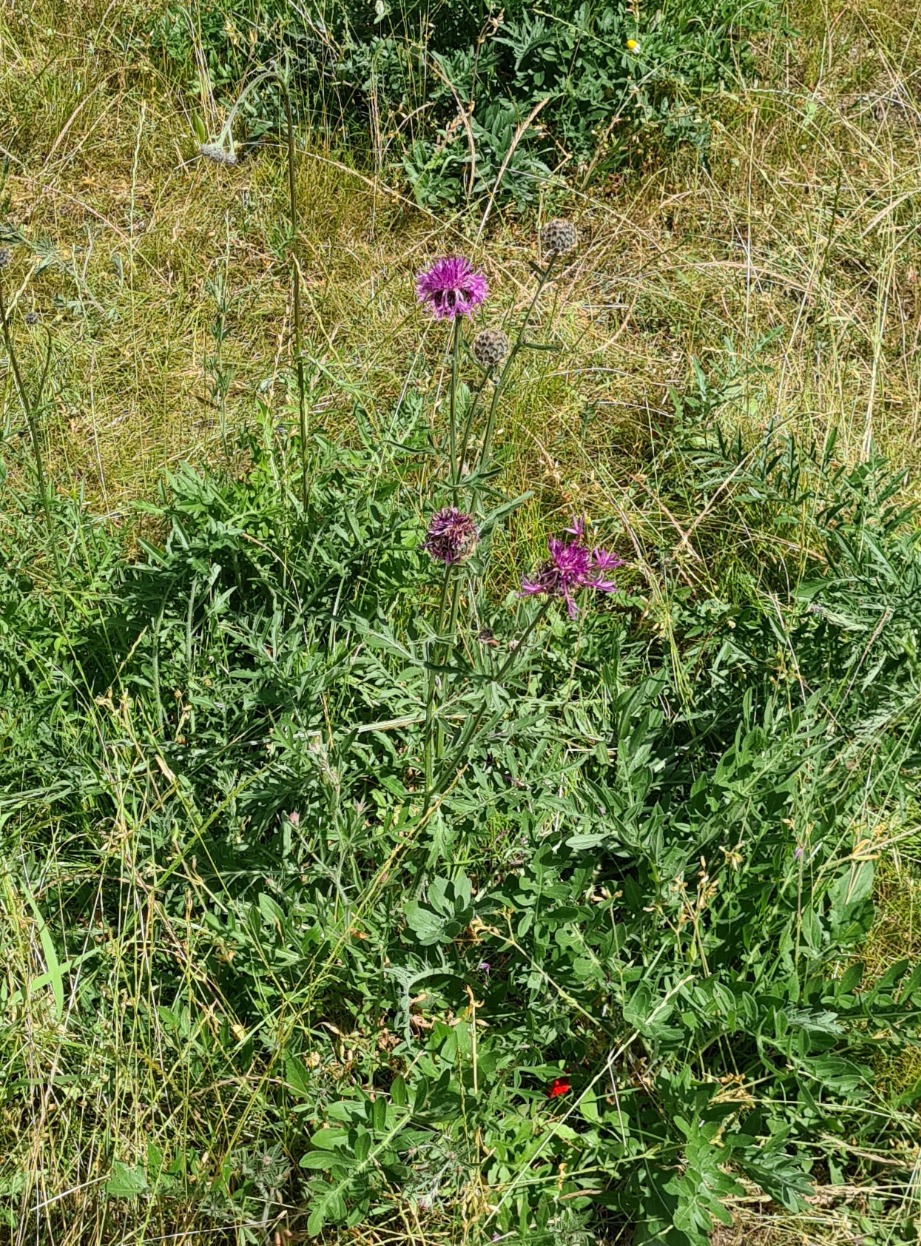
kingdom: Plantae
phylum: Tracheophyta
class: Magnoliopsida
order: Asterales
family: Asteraceae
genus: Centaurea
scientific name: Centaurea scabiosa
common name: Stor knopurt
